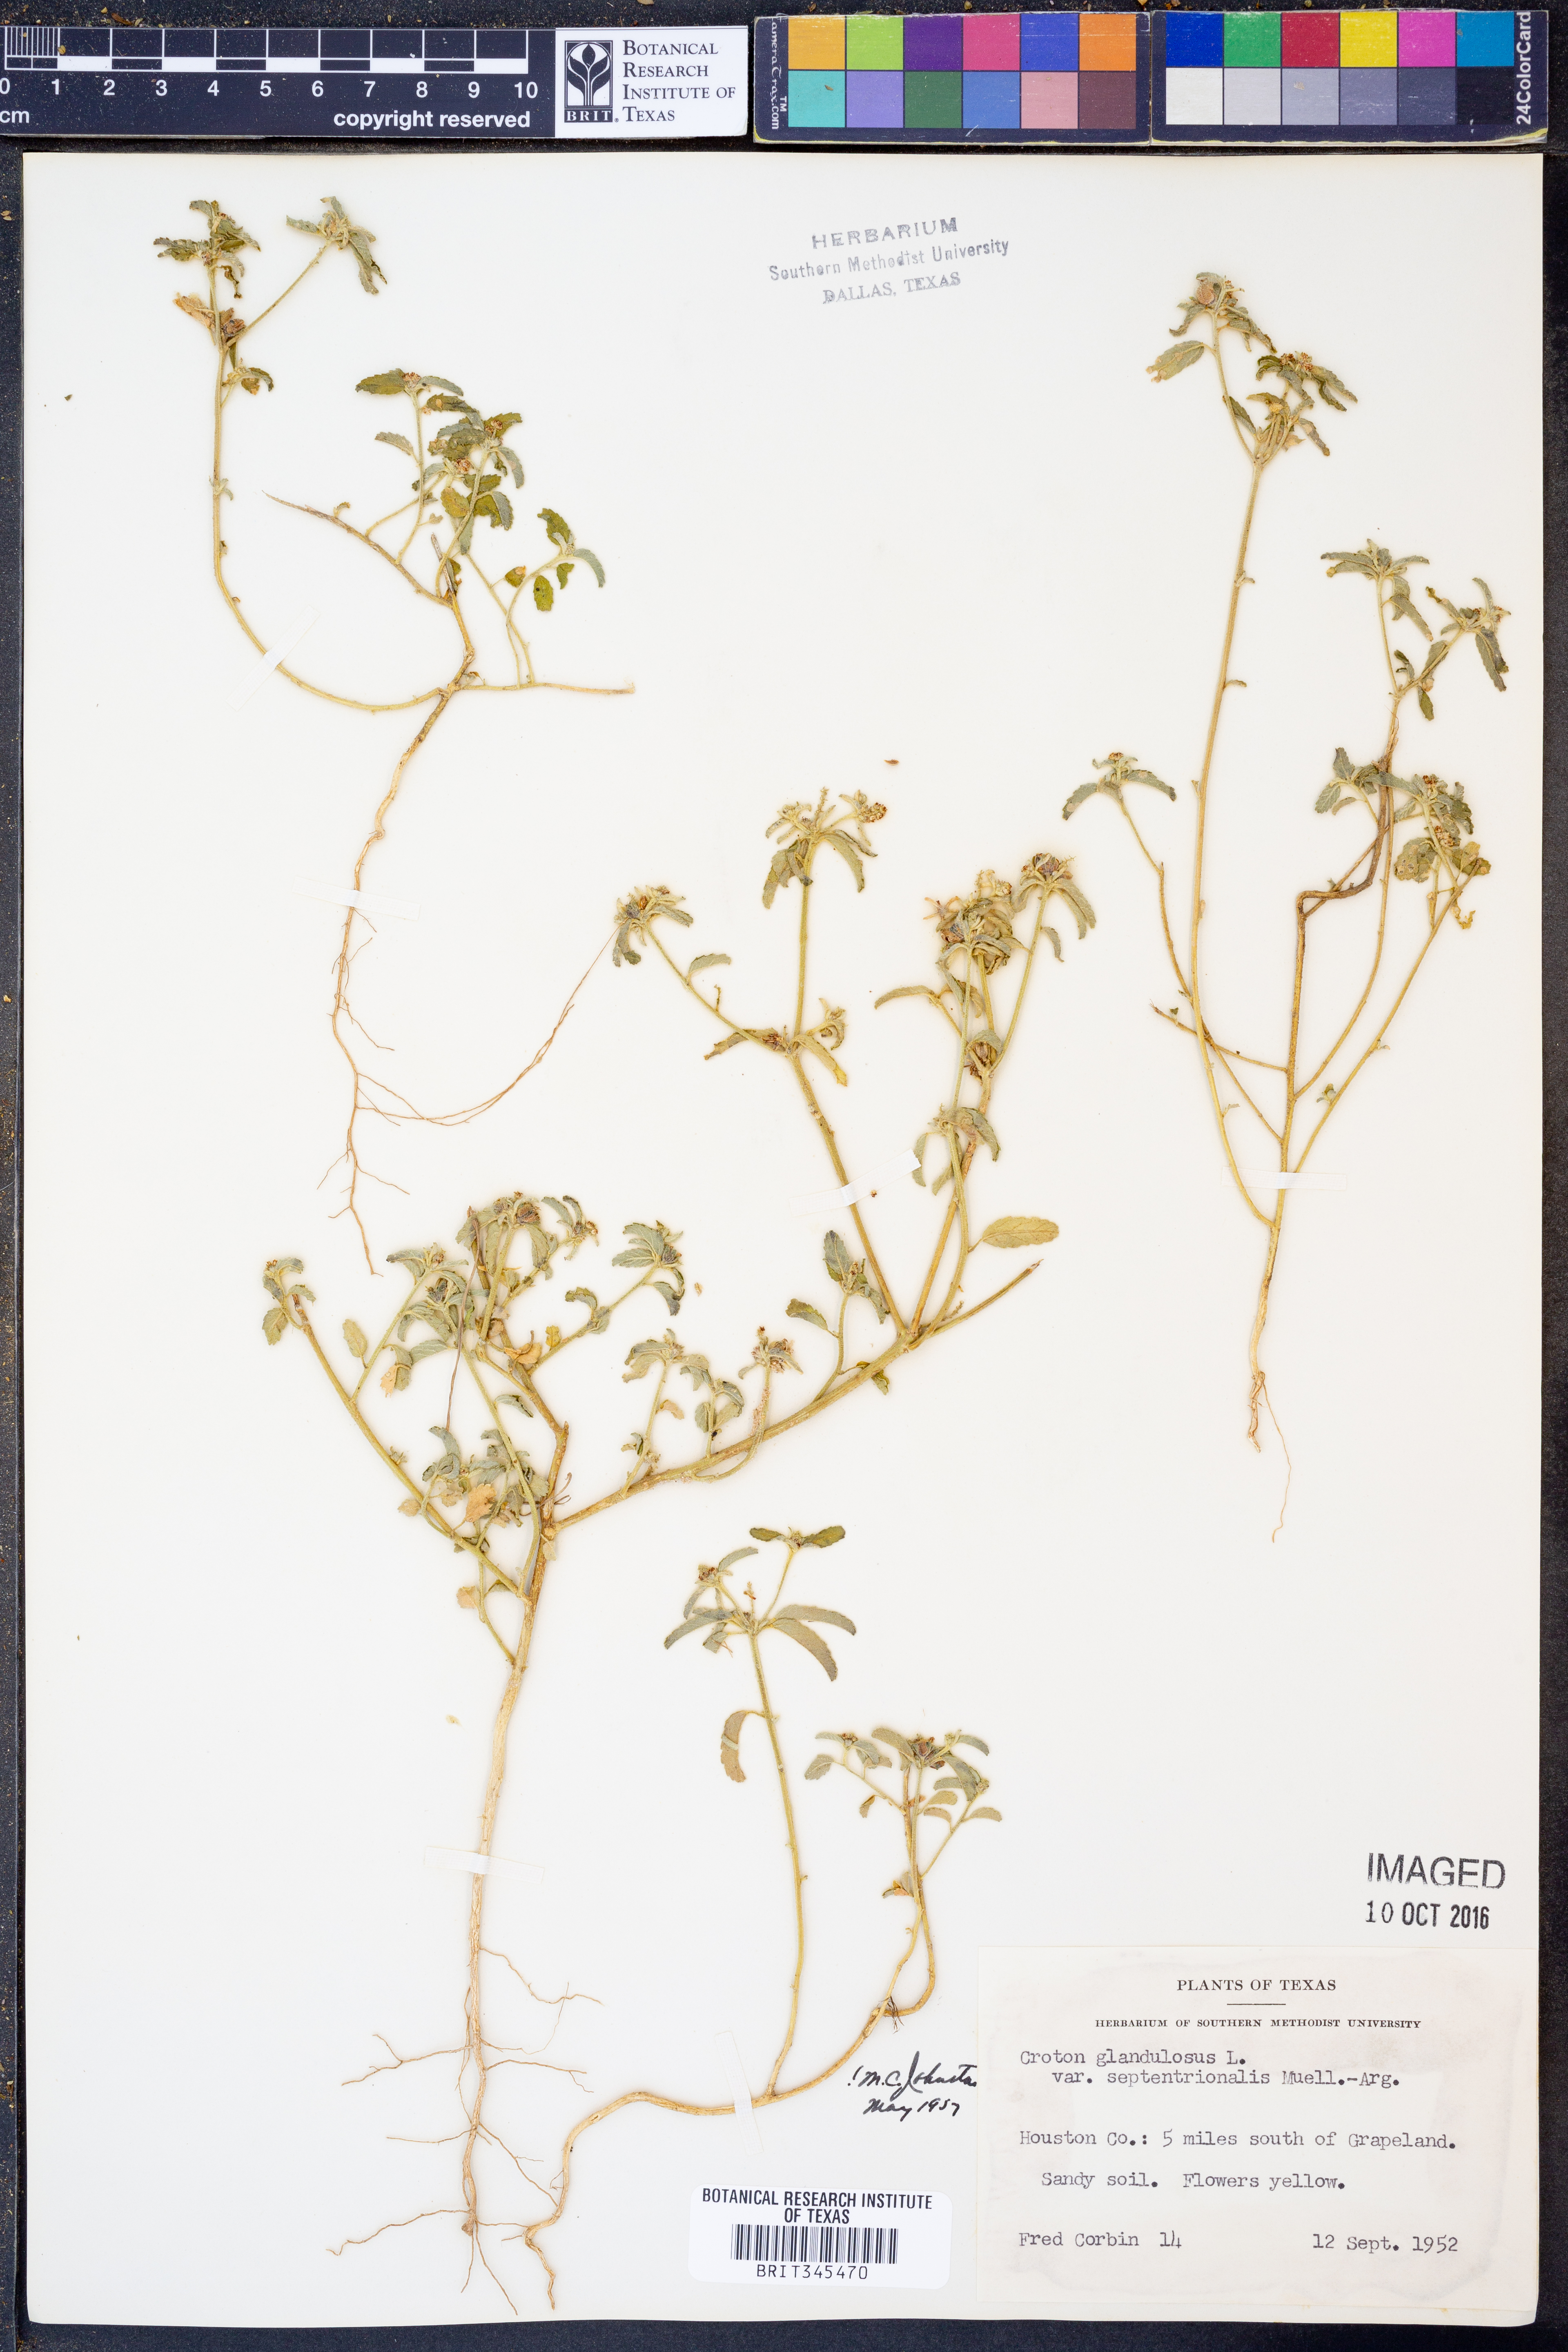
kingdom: Plantae
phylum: Tracheophyta
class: Magnoliopsida
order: Malpighiales
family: Euphorbiaceae
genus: Croton
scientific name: Croton glandulosus
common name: Tropic croton
